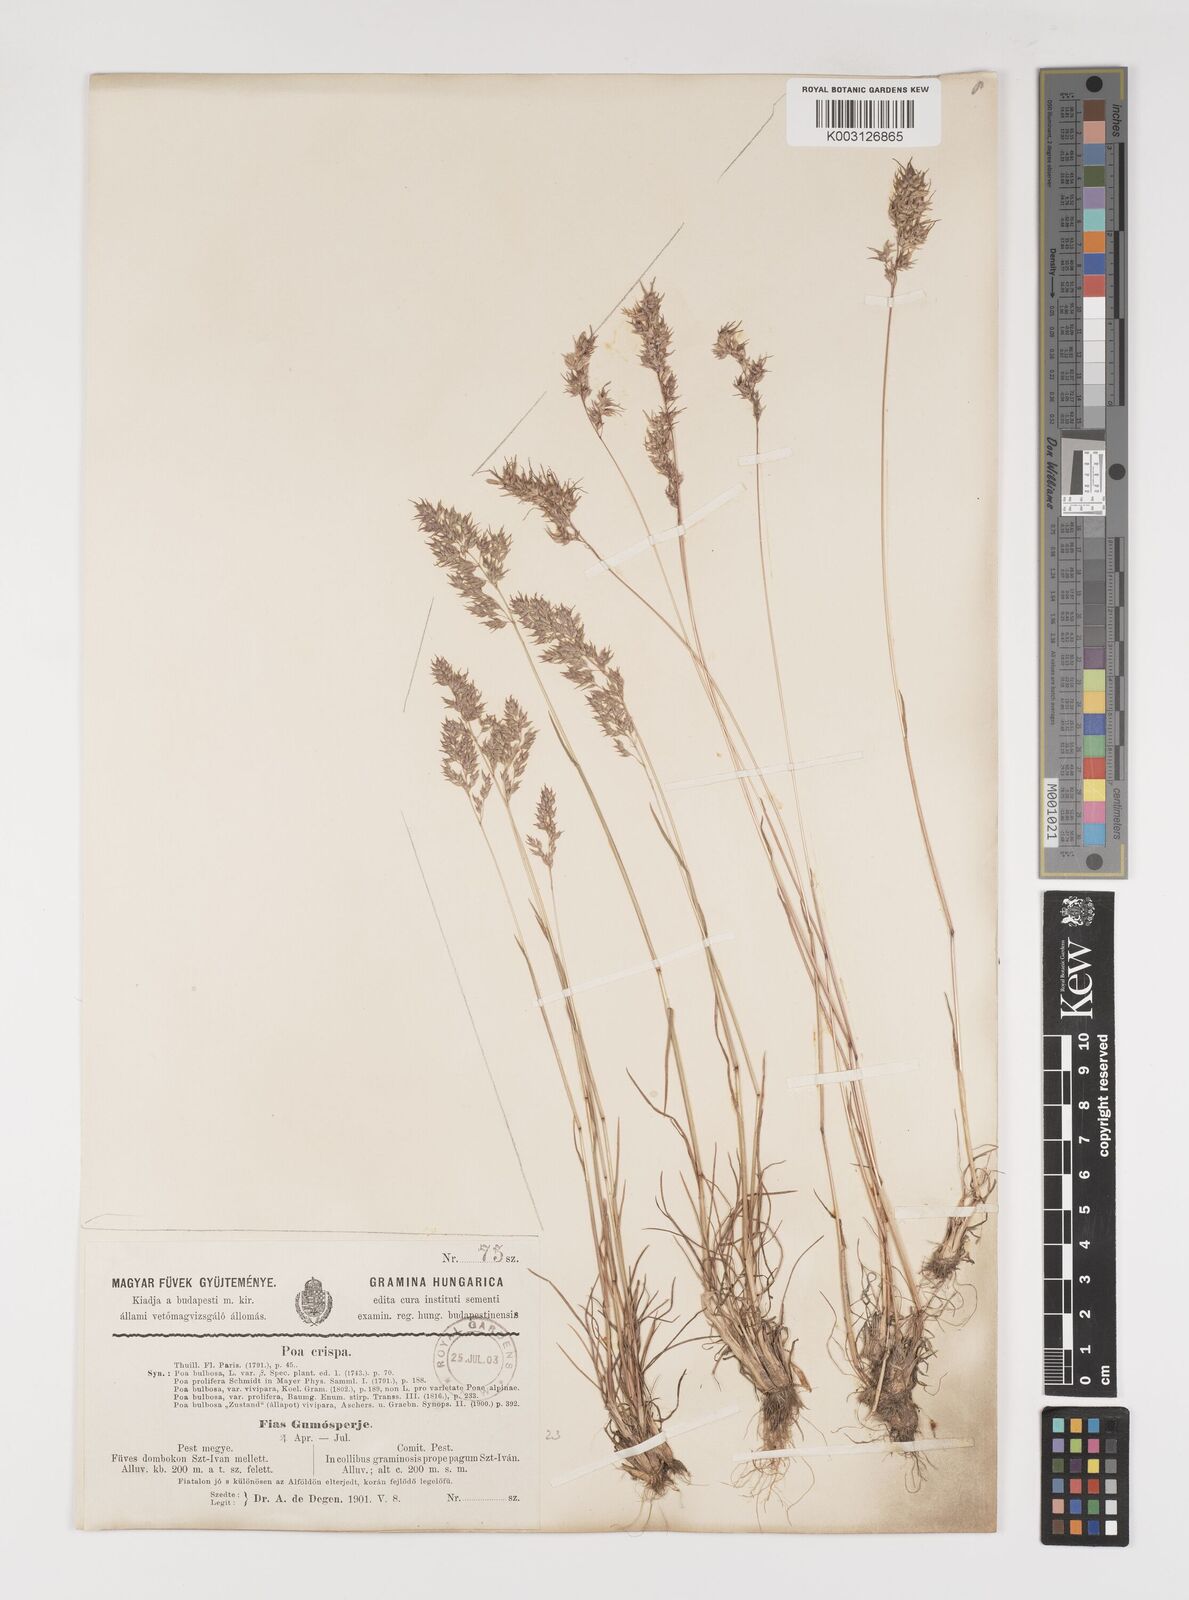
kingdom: Plantae
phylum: Tracheophyta
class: Liliopsida
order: Poales
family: Poaceae
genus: Poa
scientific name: Poa bulbosa
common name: Bulbous bluegrass
